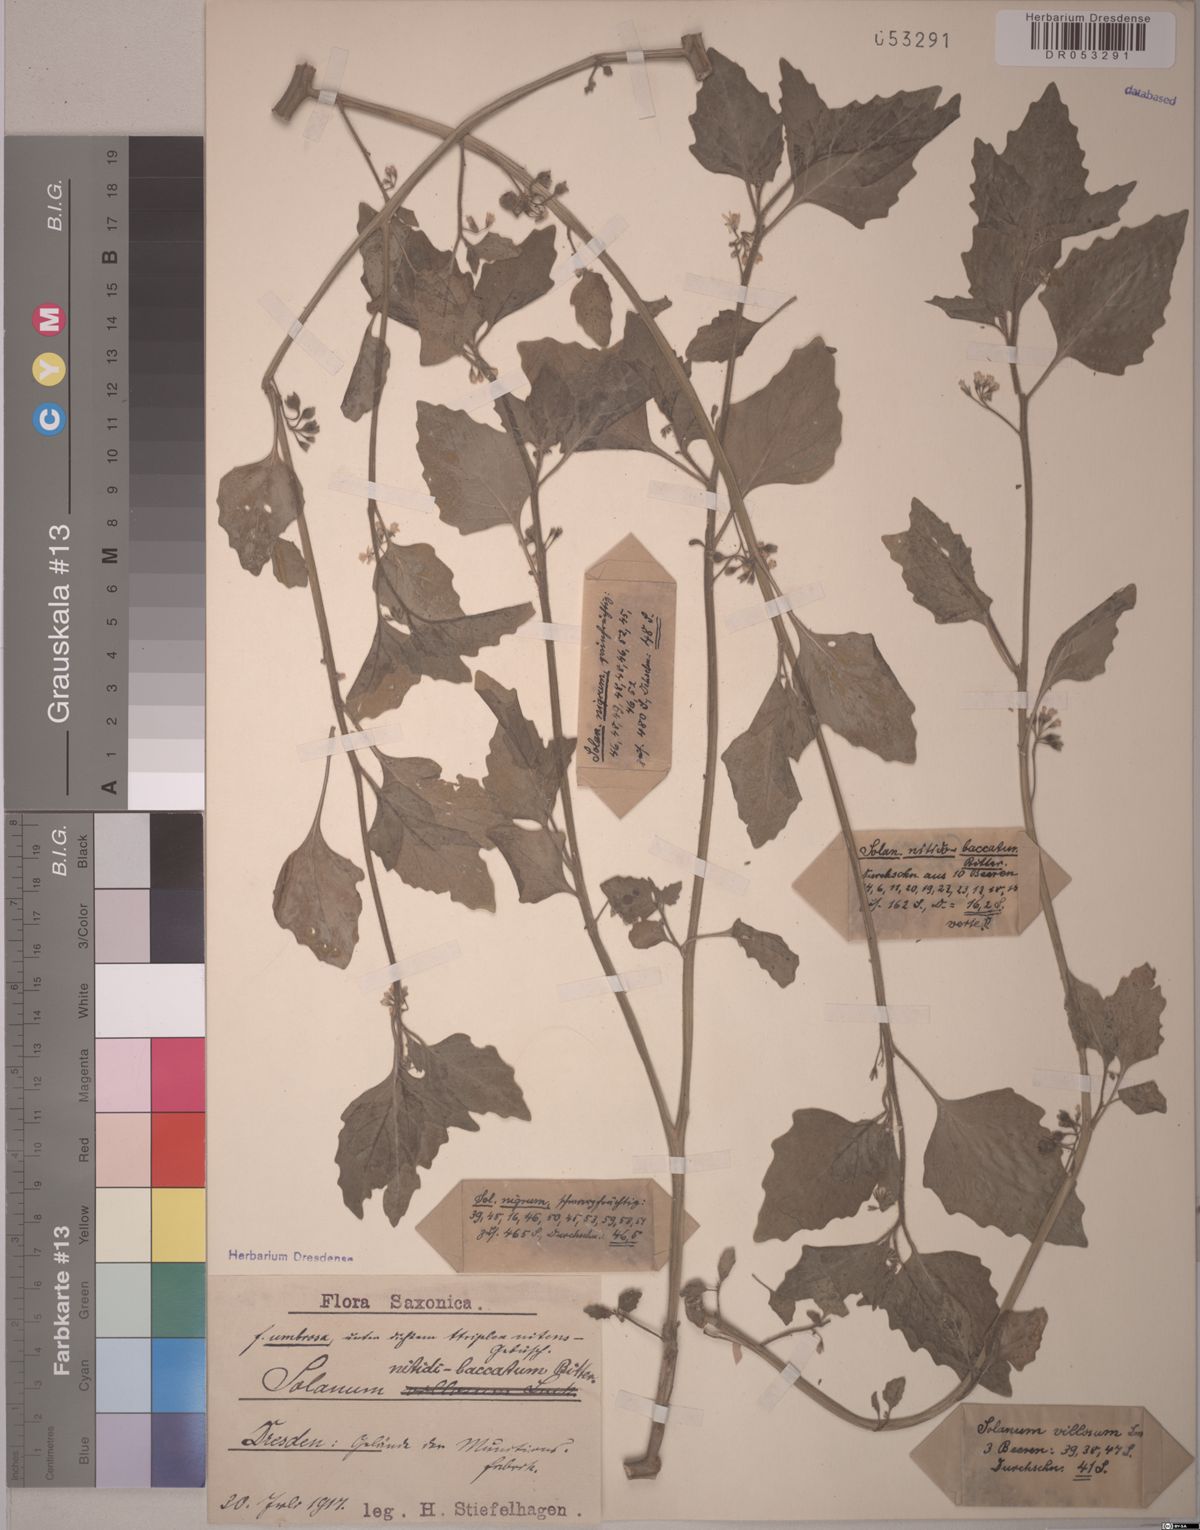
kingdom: Plantae
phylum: Tracheophyta
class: Magnoliopsida
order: Solanales
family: Solanaceae
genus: Solanum
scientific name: Solanum nitidibaccatum
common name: Hairy nightshade
